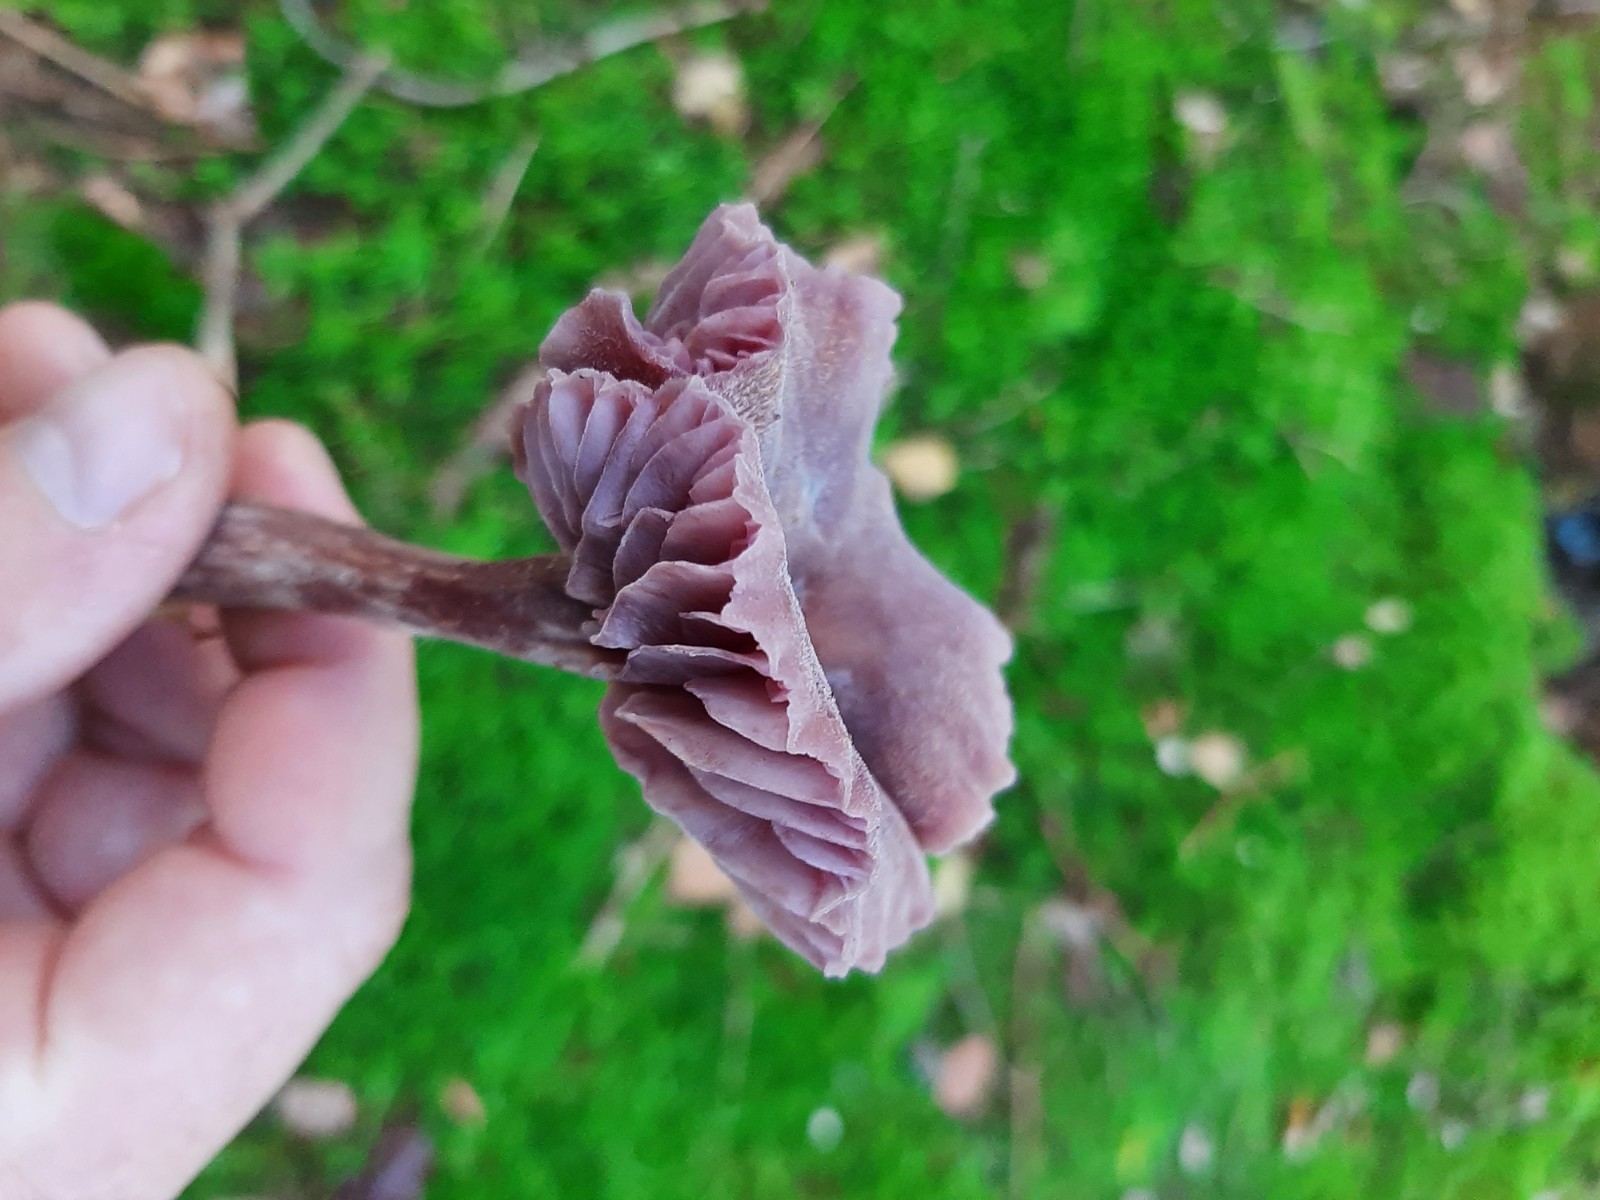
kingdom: Fungi
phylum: Basidiomycota
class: Agaricomycetes
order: Agaricales
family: Hydnangiaceae
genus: Laccaria
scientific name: Laccaria amethystina
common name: violet ametysthat
